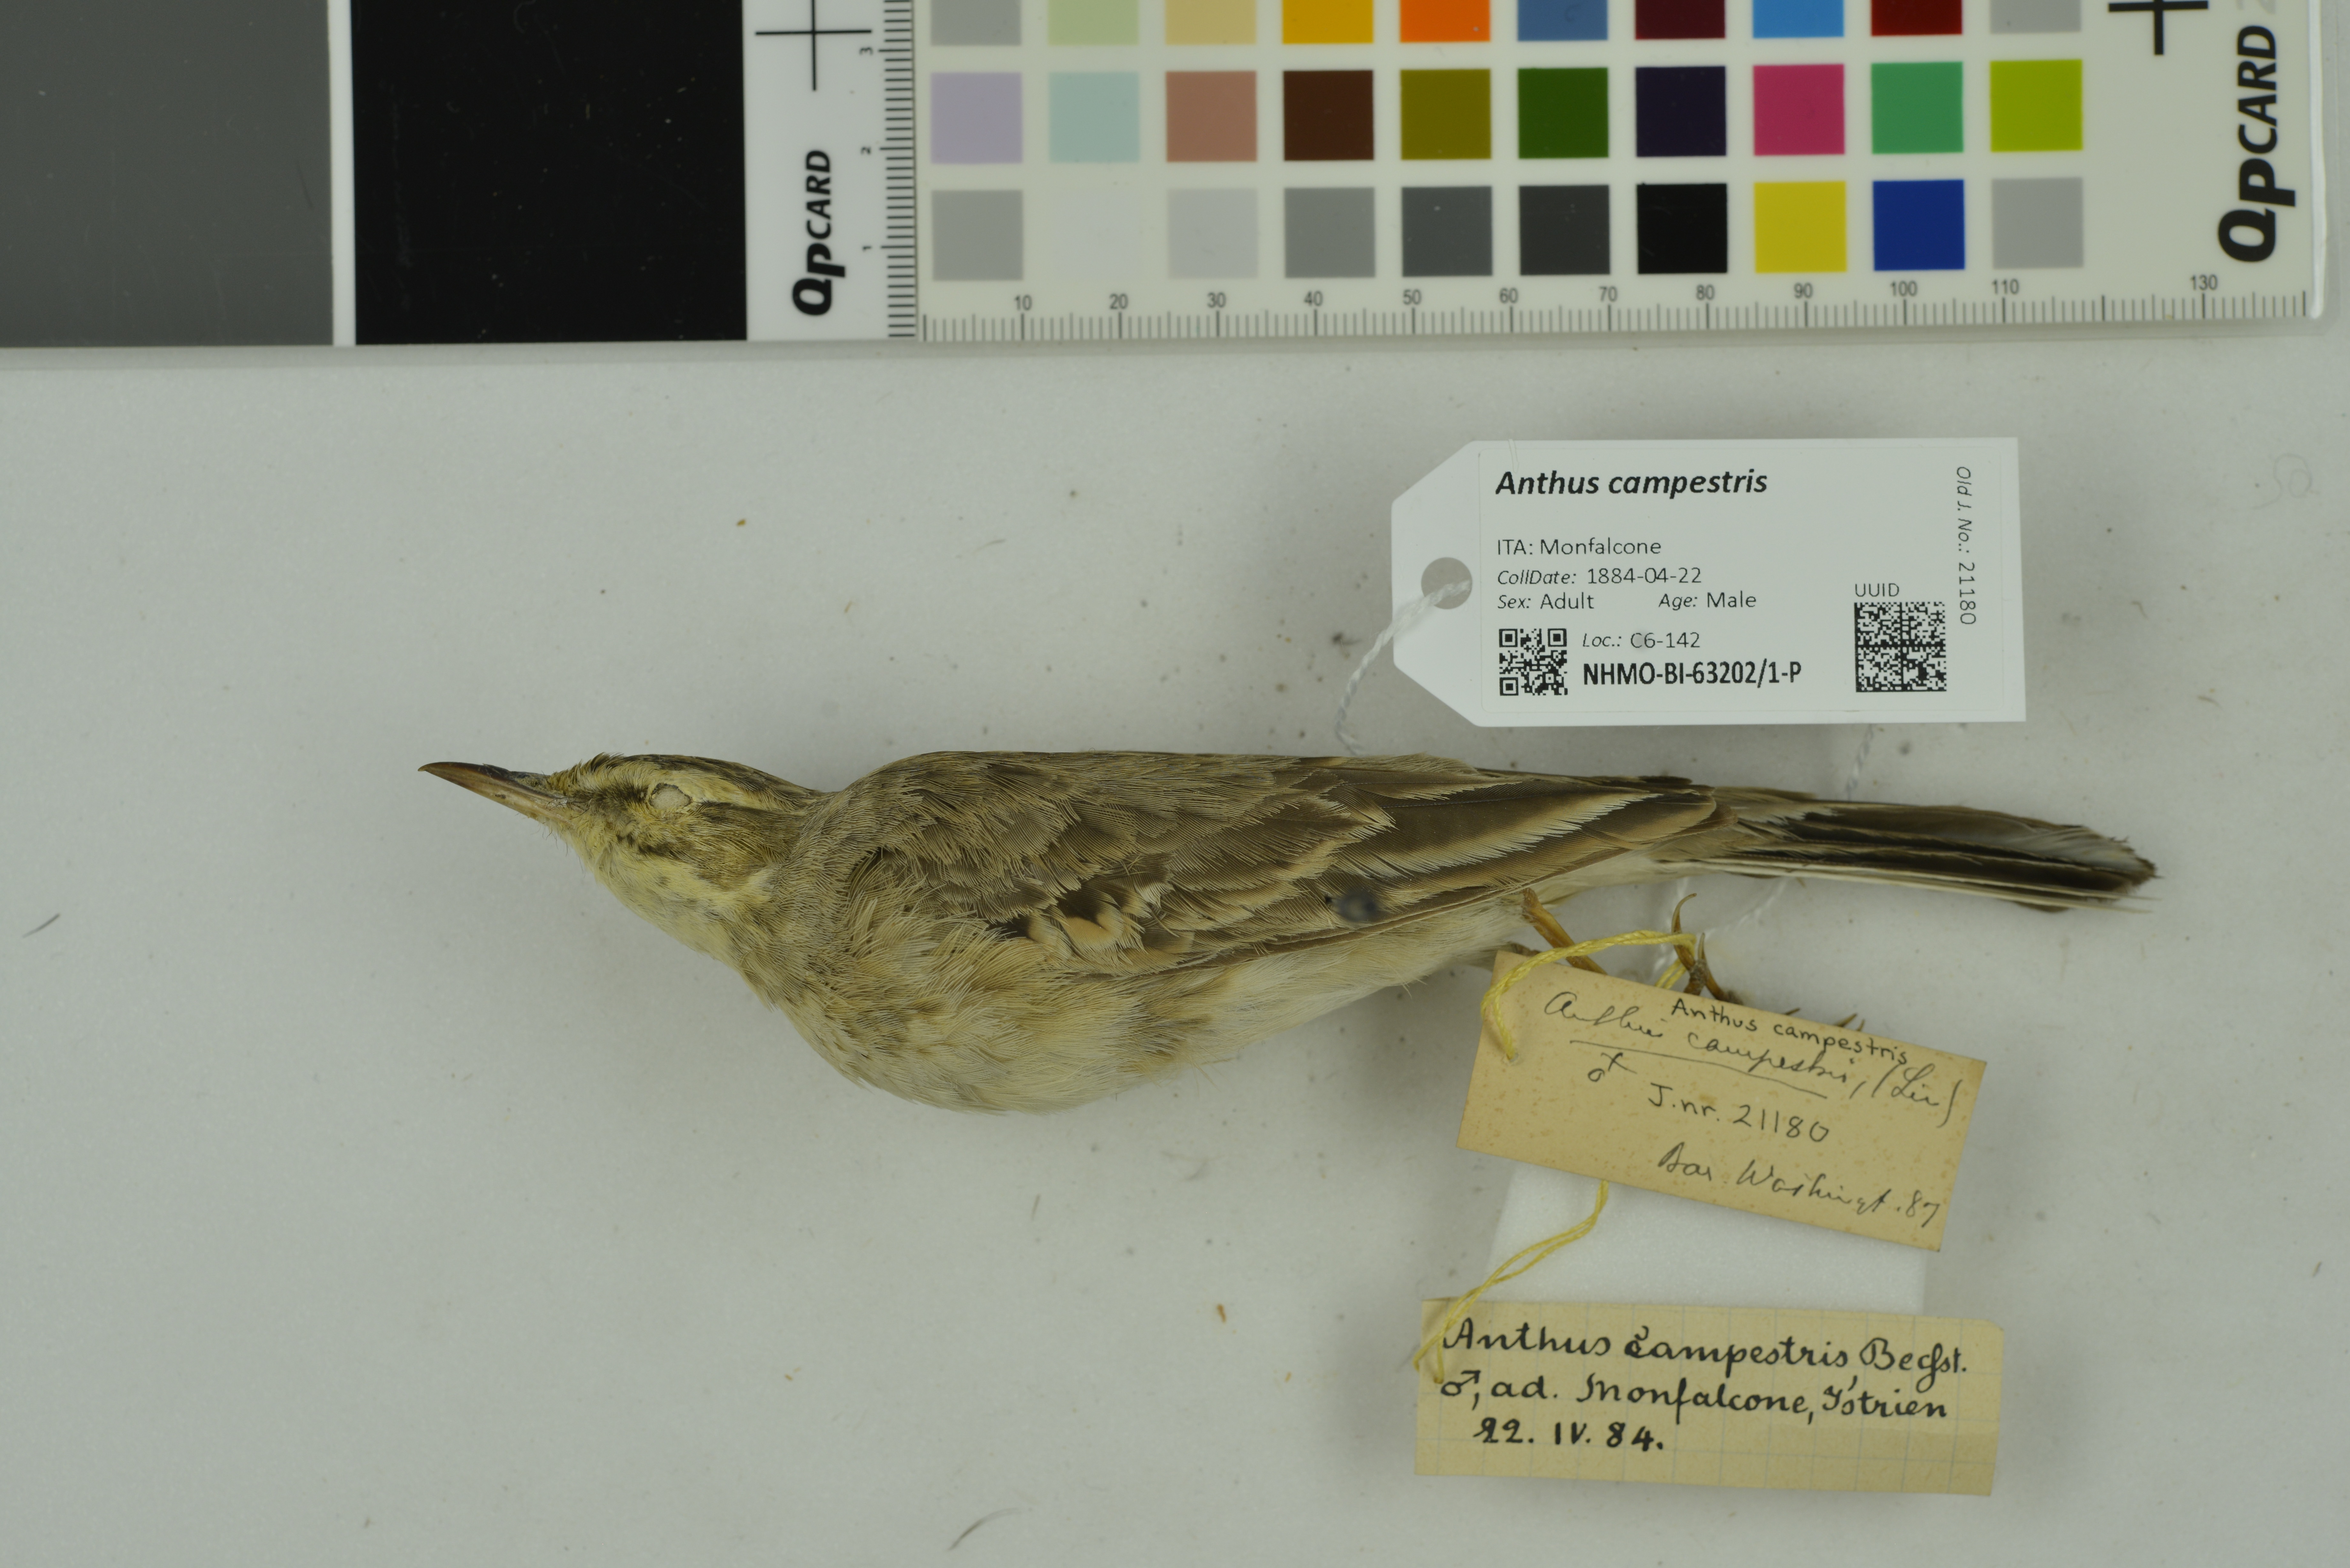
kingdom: Animalia
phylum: Chordata
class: Aves
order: Passeriformes
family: Motacillidae
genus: Anthus
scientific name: Anthus campestris
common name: Tawny pipit
